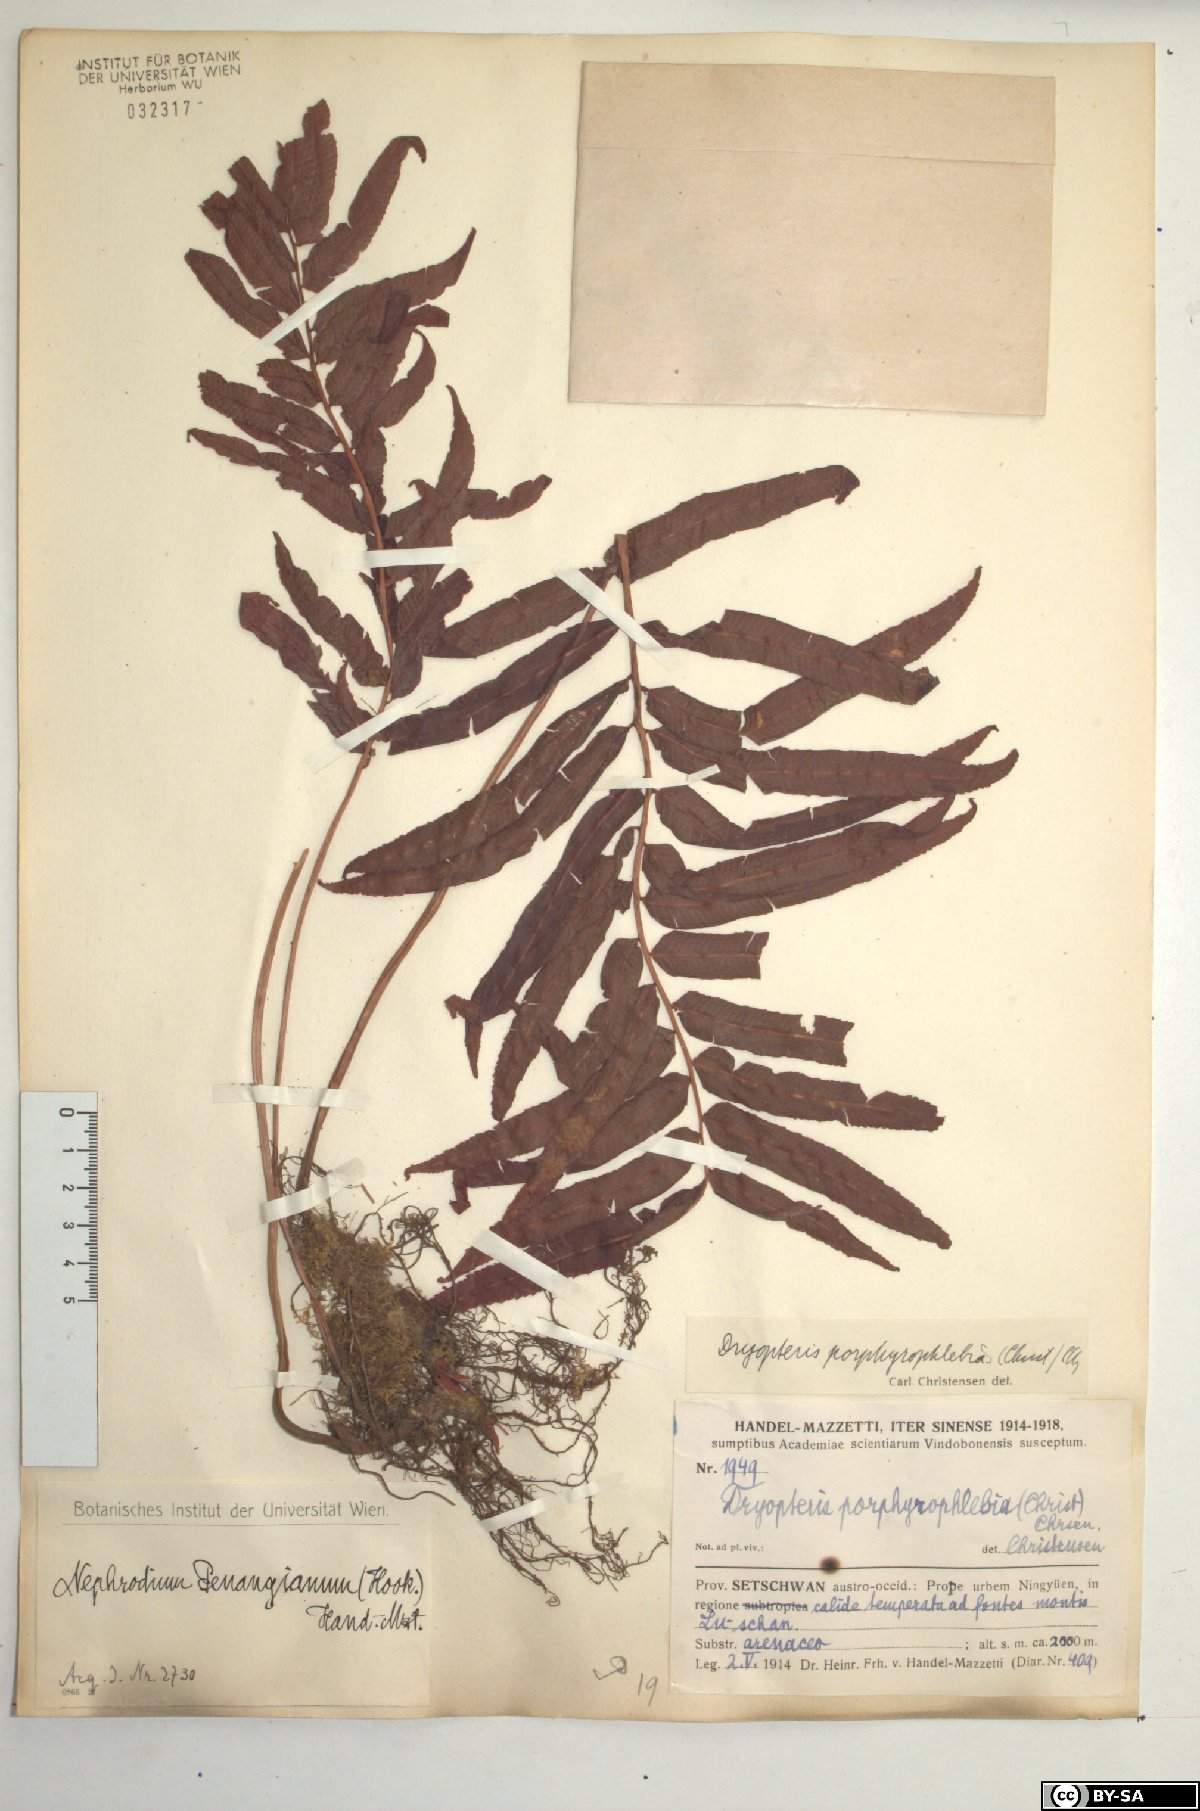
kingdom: Plantae
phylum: Tracheophyta
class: Polypodiopsida
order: Polypodiales
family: Thelypteridaceae
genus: Menisciopsis
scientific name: Menisciopsis penangiana
